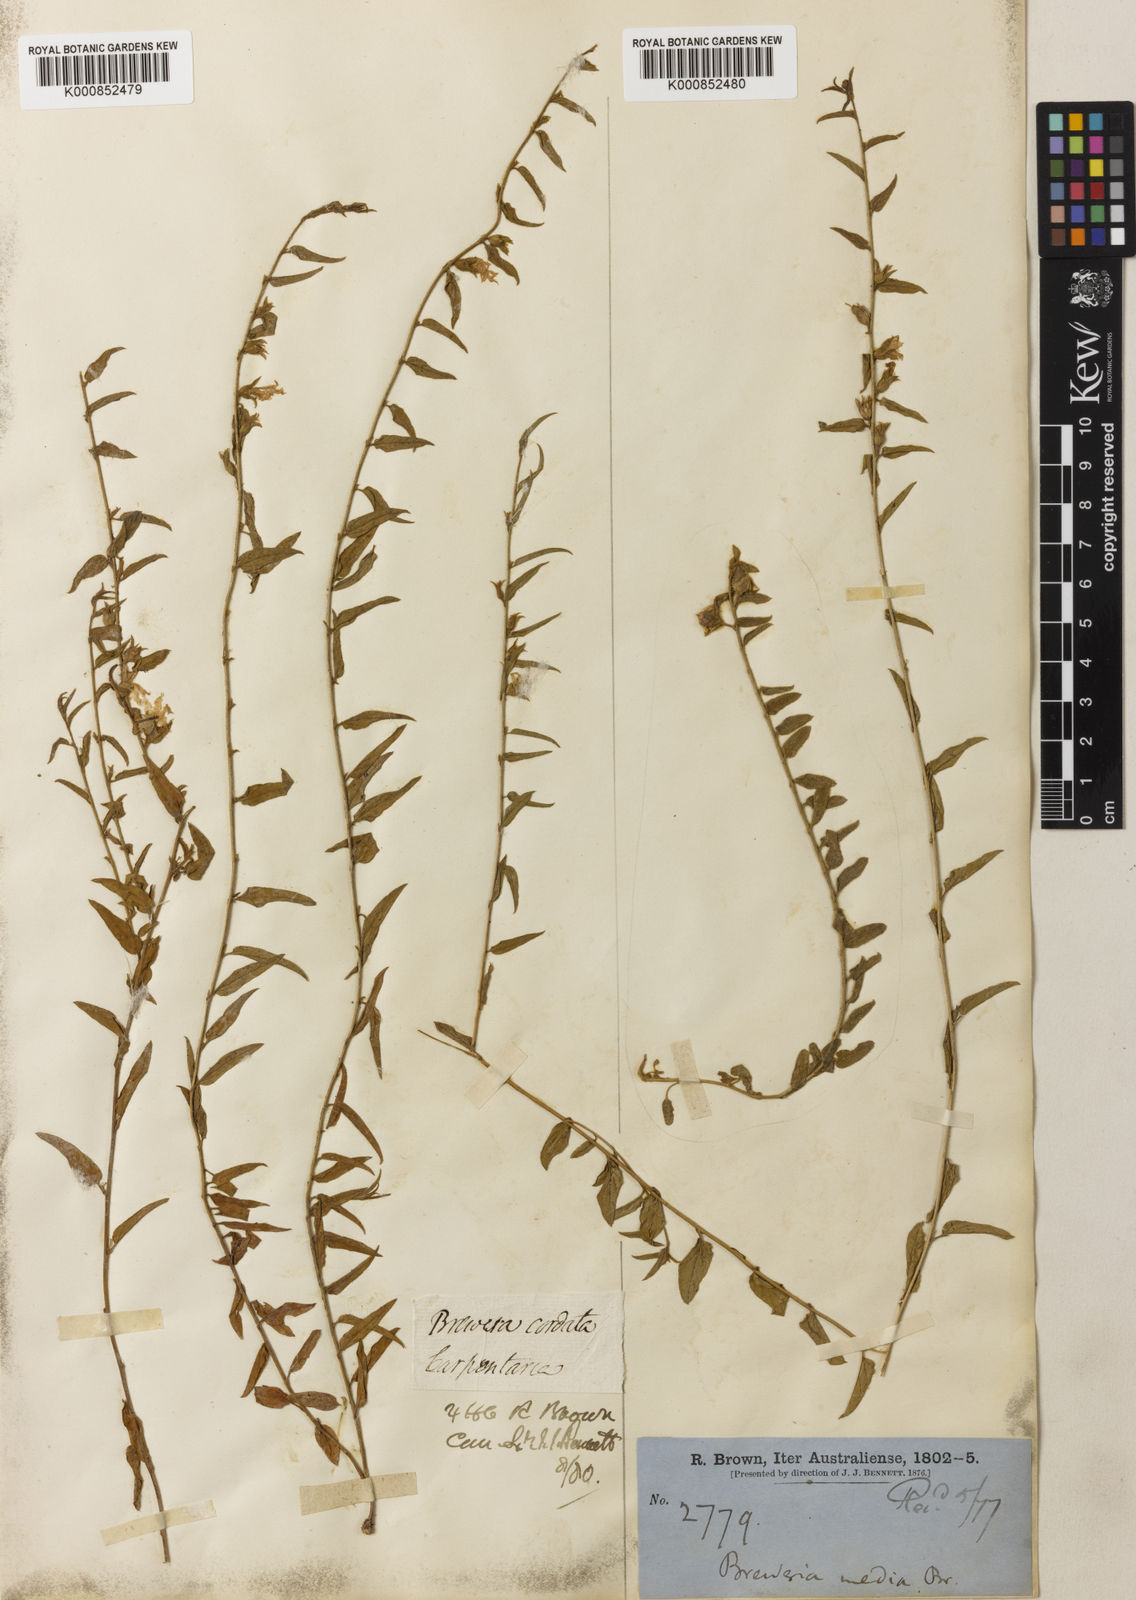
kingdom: Plantae
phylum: Tracheophyta
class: Magnoliopsida
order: Solanales
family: Convolvulaceae
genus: Bonamia
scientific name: Bonamia media
